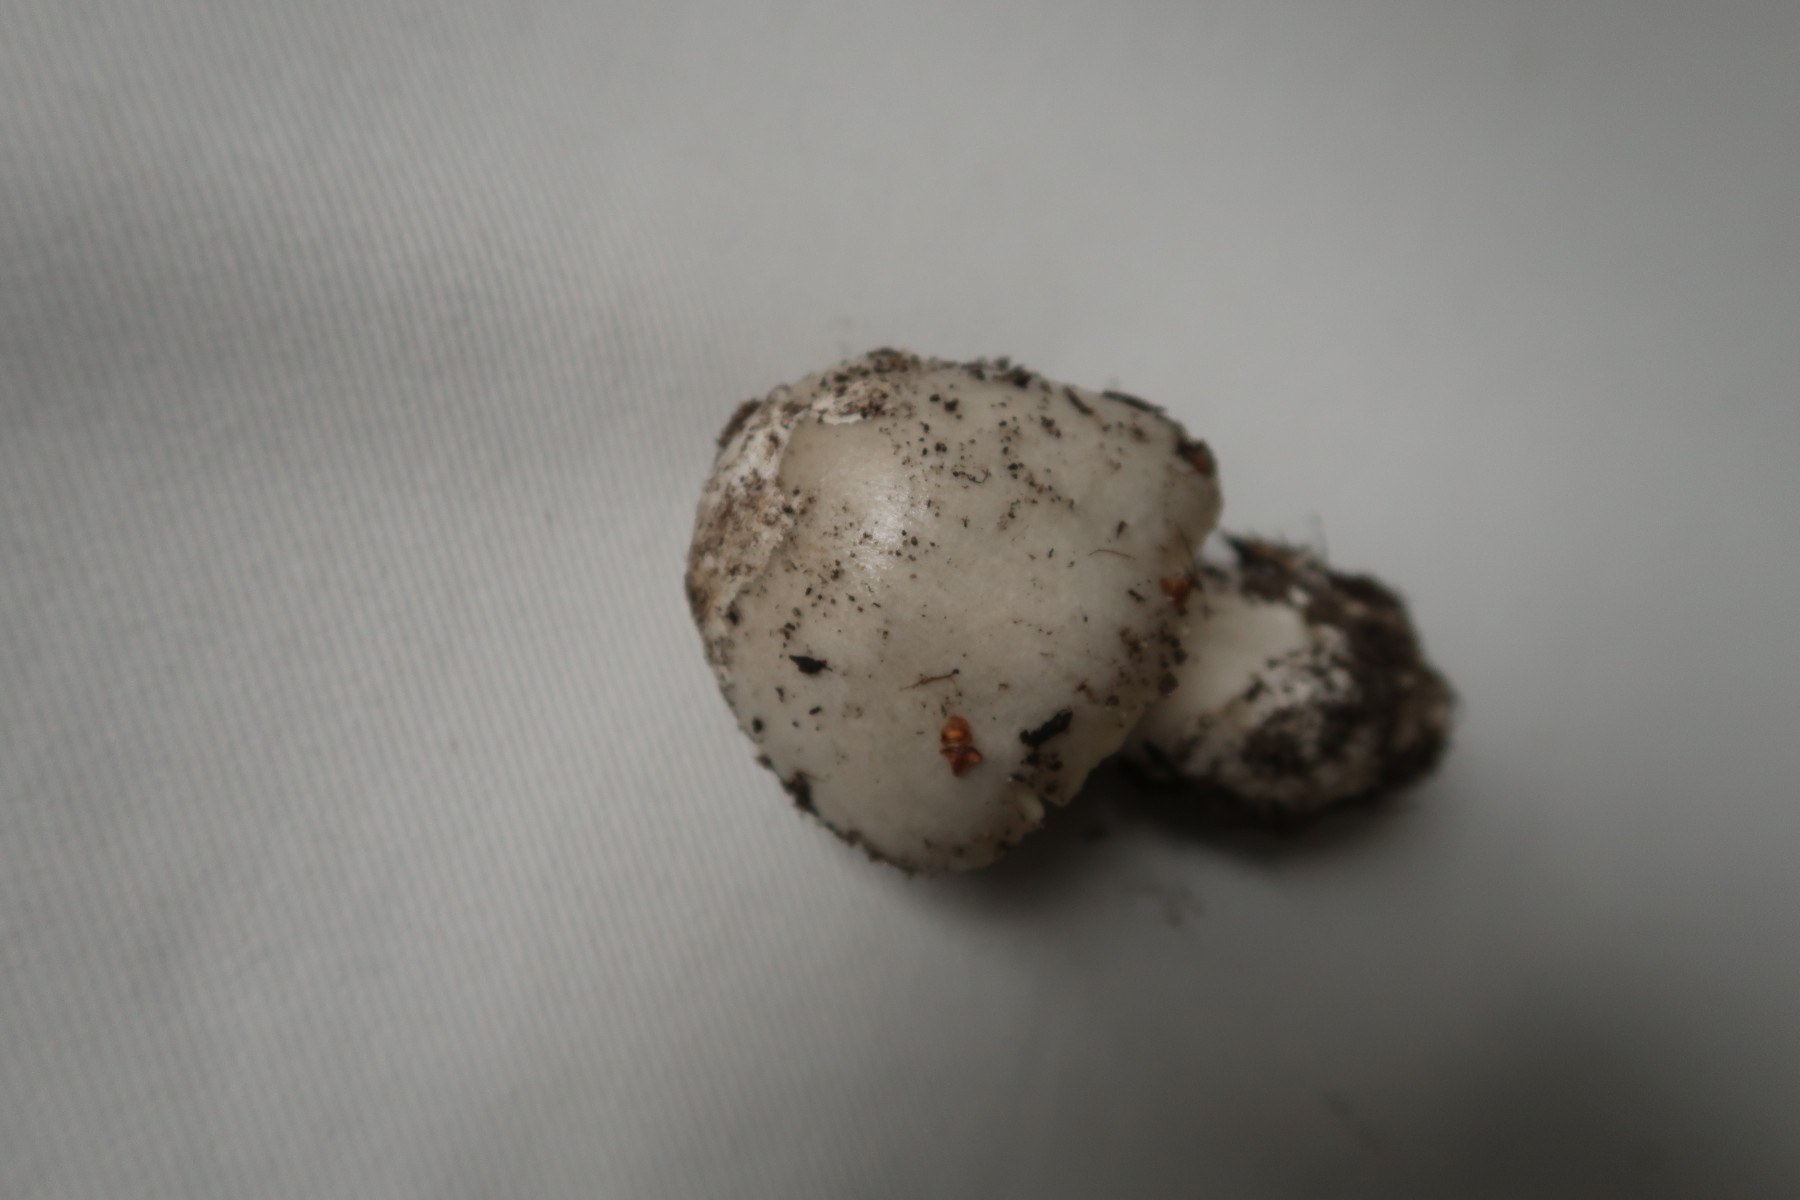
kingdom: Fungi
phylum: Basidiomycota
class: Agaricomycetes
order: Agaricales
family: Pluteaceae
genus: Volvopluteus
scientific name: Volvopluteus gloiocephalus
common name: høj posesvamp
